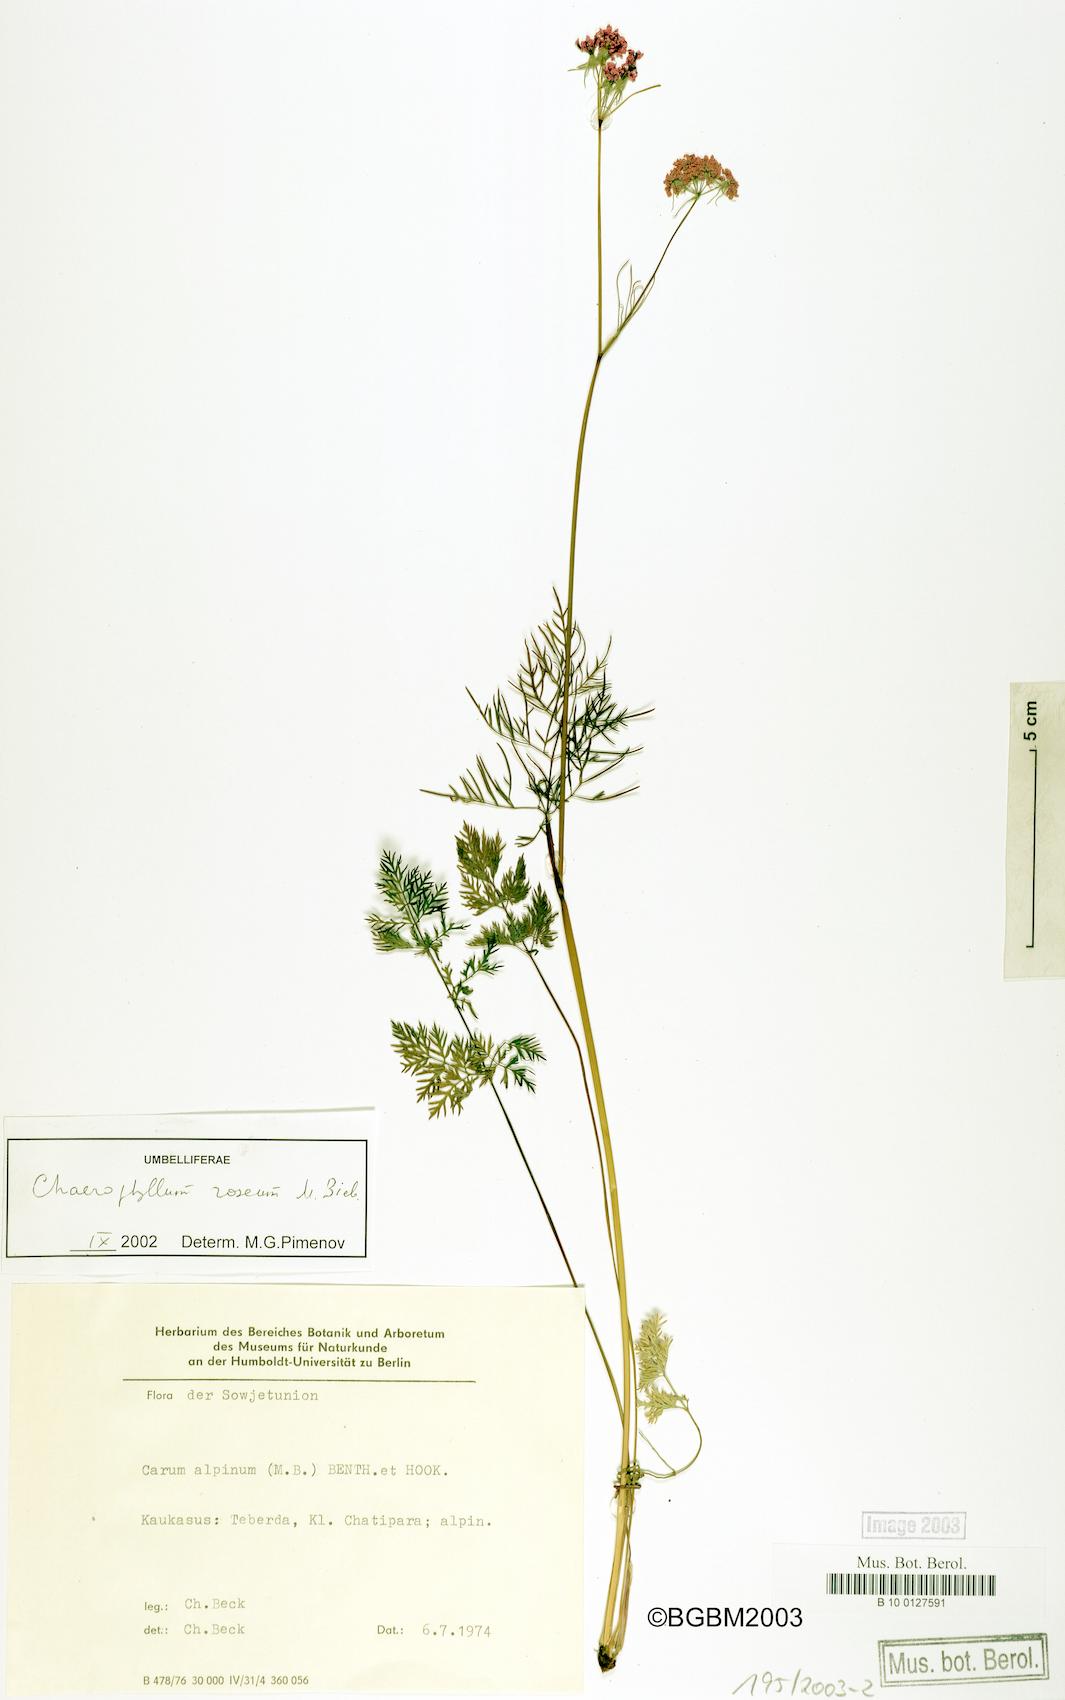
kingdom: Plantae
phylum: Tracheophyta
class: Magnoliopsida
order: Apiales
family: Apiaceae
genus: Chaerophyllum
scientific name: Chaerophyllum roseum
